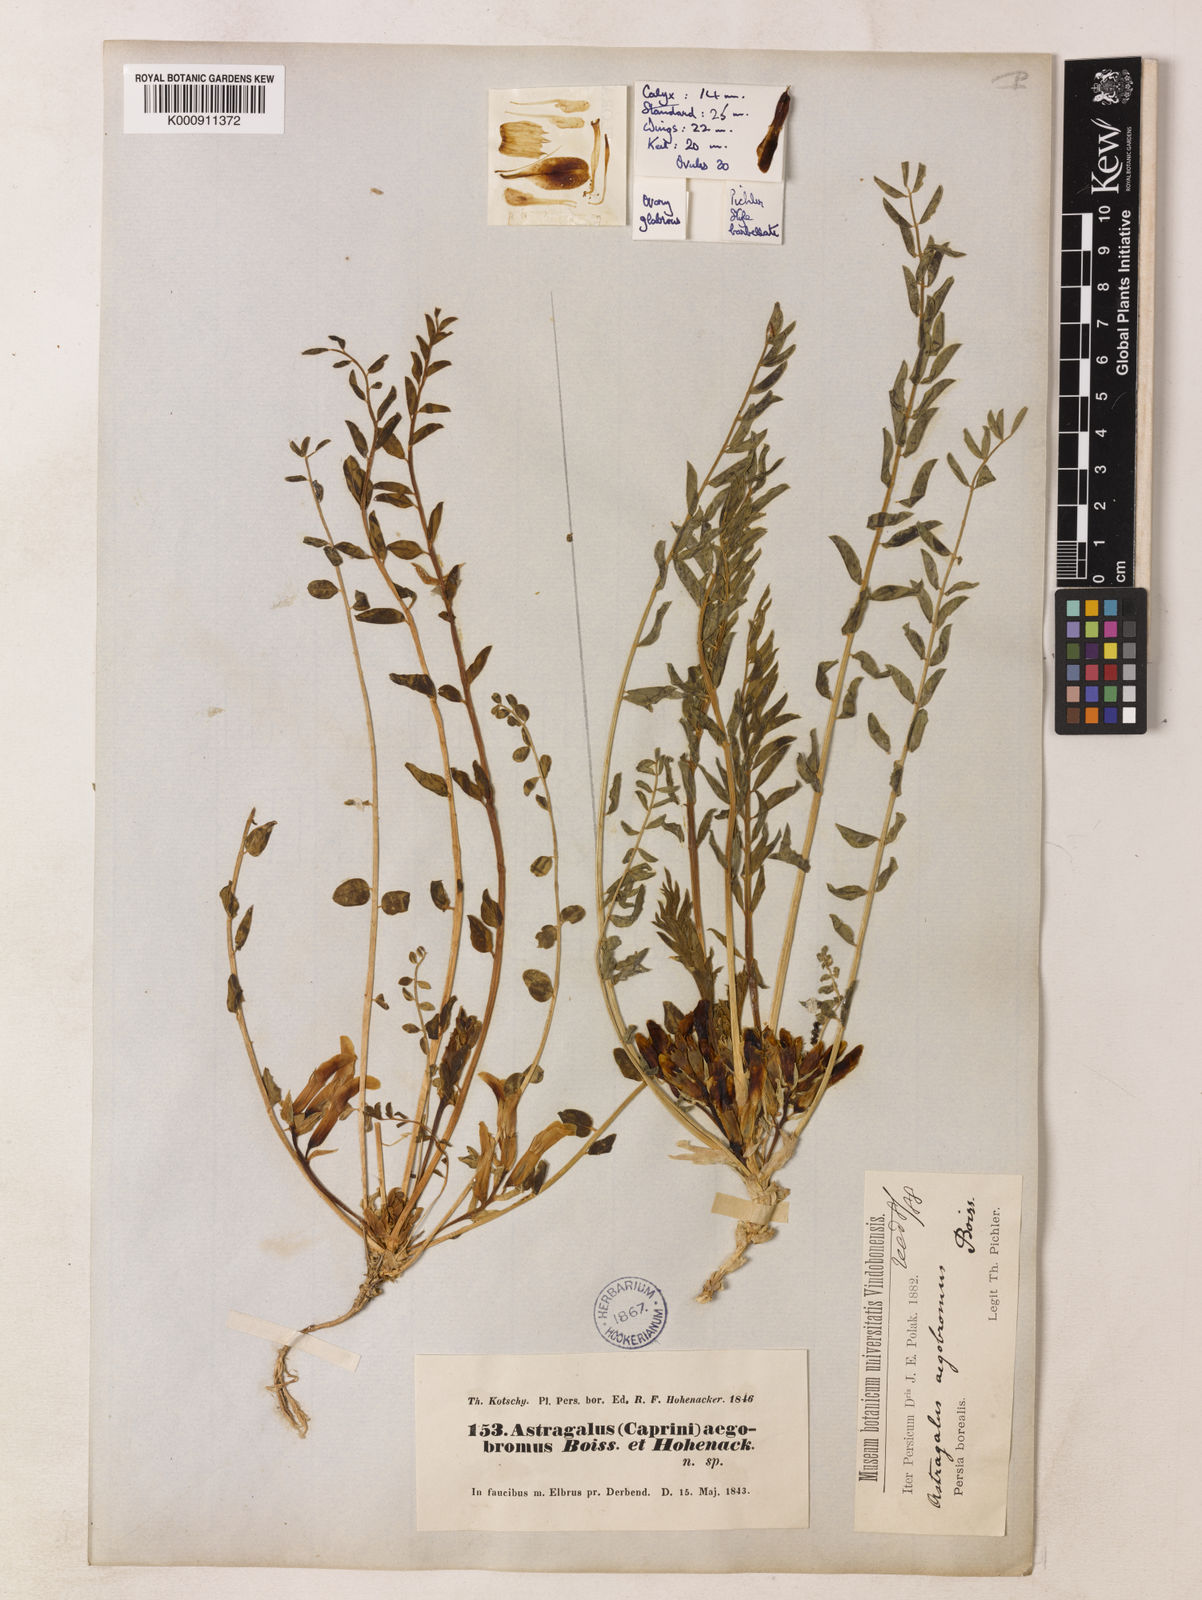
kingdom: Plantae
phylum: Tracheophyta
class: Magnoliopsida
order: Fabales
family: Fabaceae
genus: Astragalus
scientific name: Astragalus aegobromus
